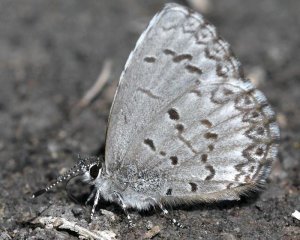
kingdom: Animalia
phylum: Arthropoda
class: Insecta
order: Lepidoptera
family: Lycaenidae
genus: Celastrina
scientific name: Celastrina lucia
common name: Northern Spring Azure
